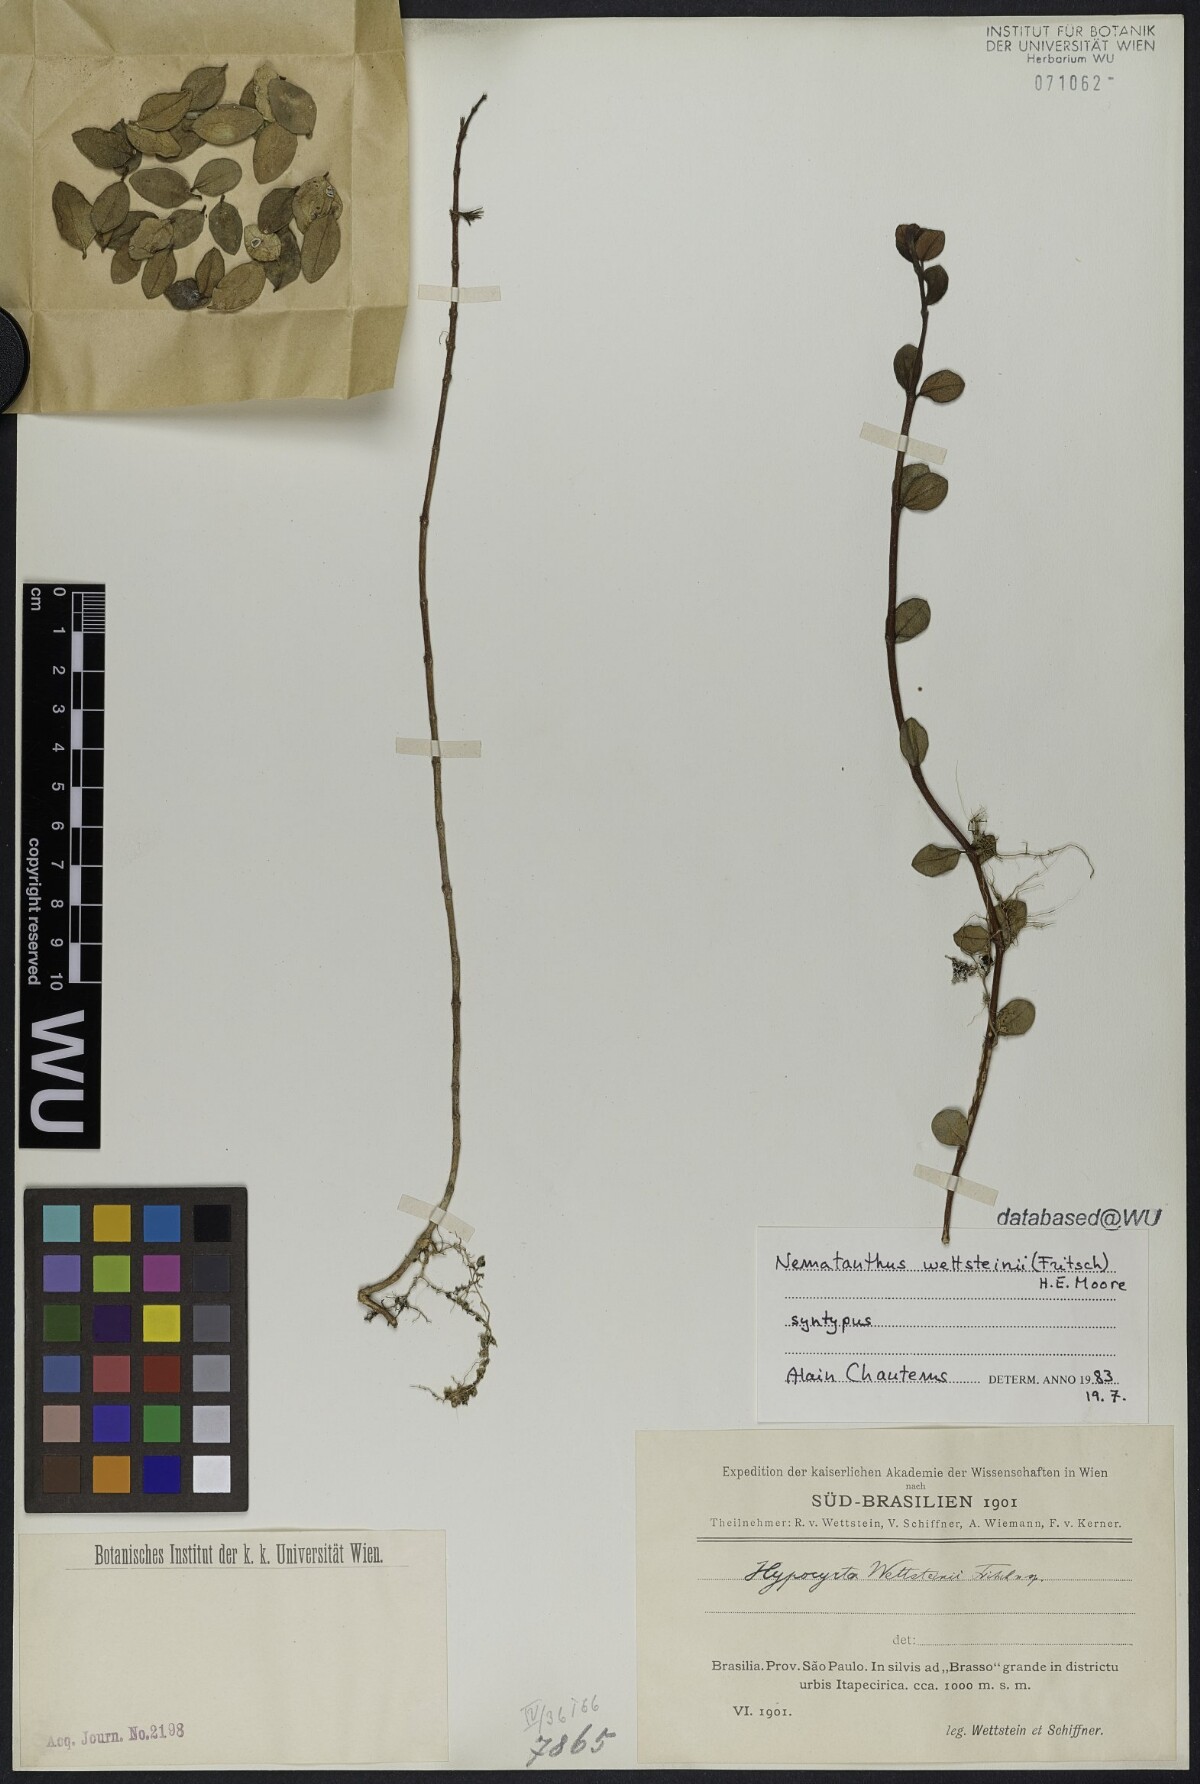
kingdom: Plantae
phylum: Tracheophyta
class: Magnoliopsida
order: Lamiales
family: Gesneriaceae
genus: Nematanthus
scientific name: Nematanthus wettsteinii
